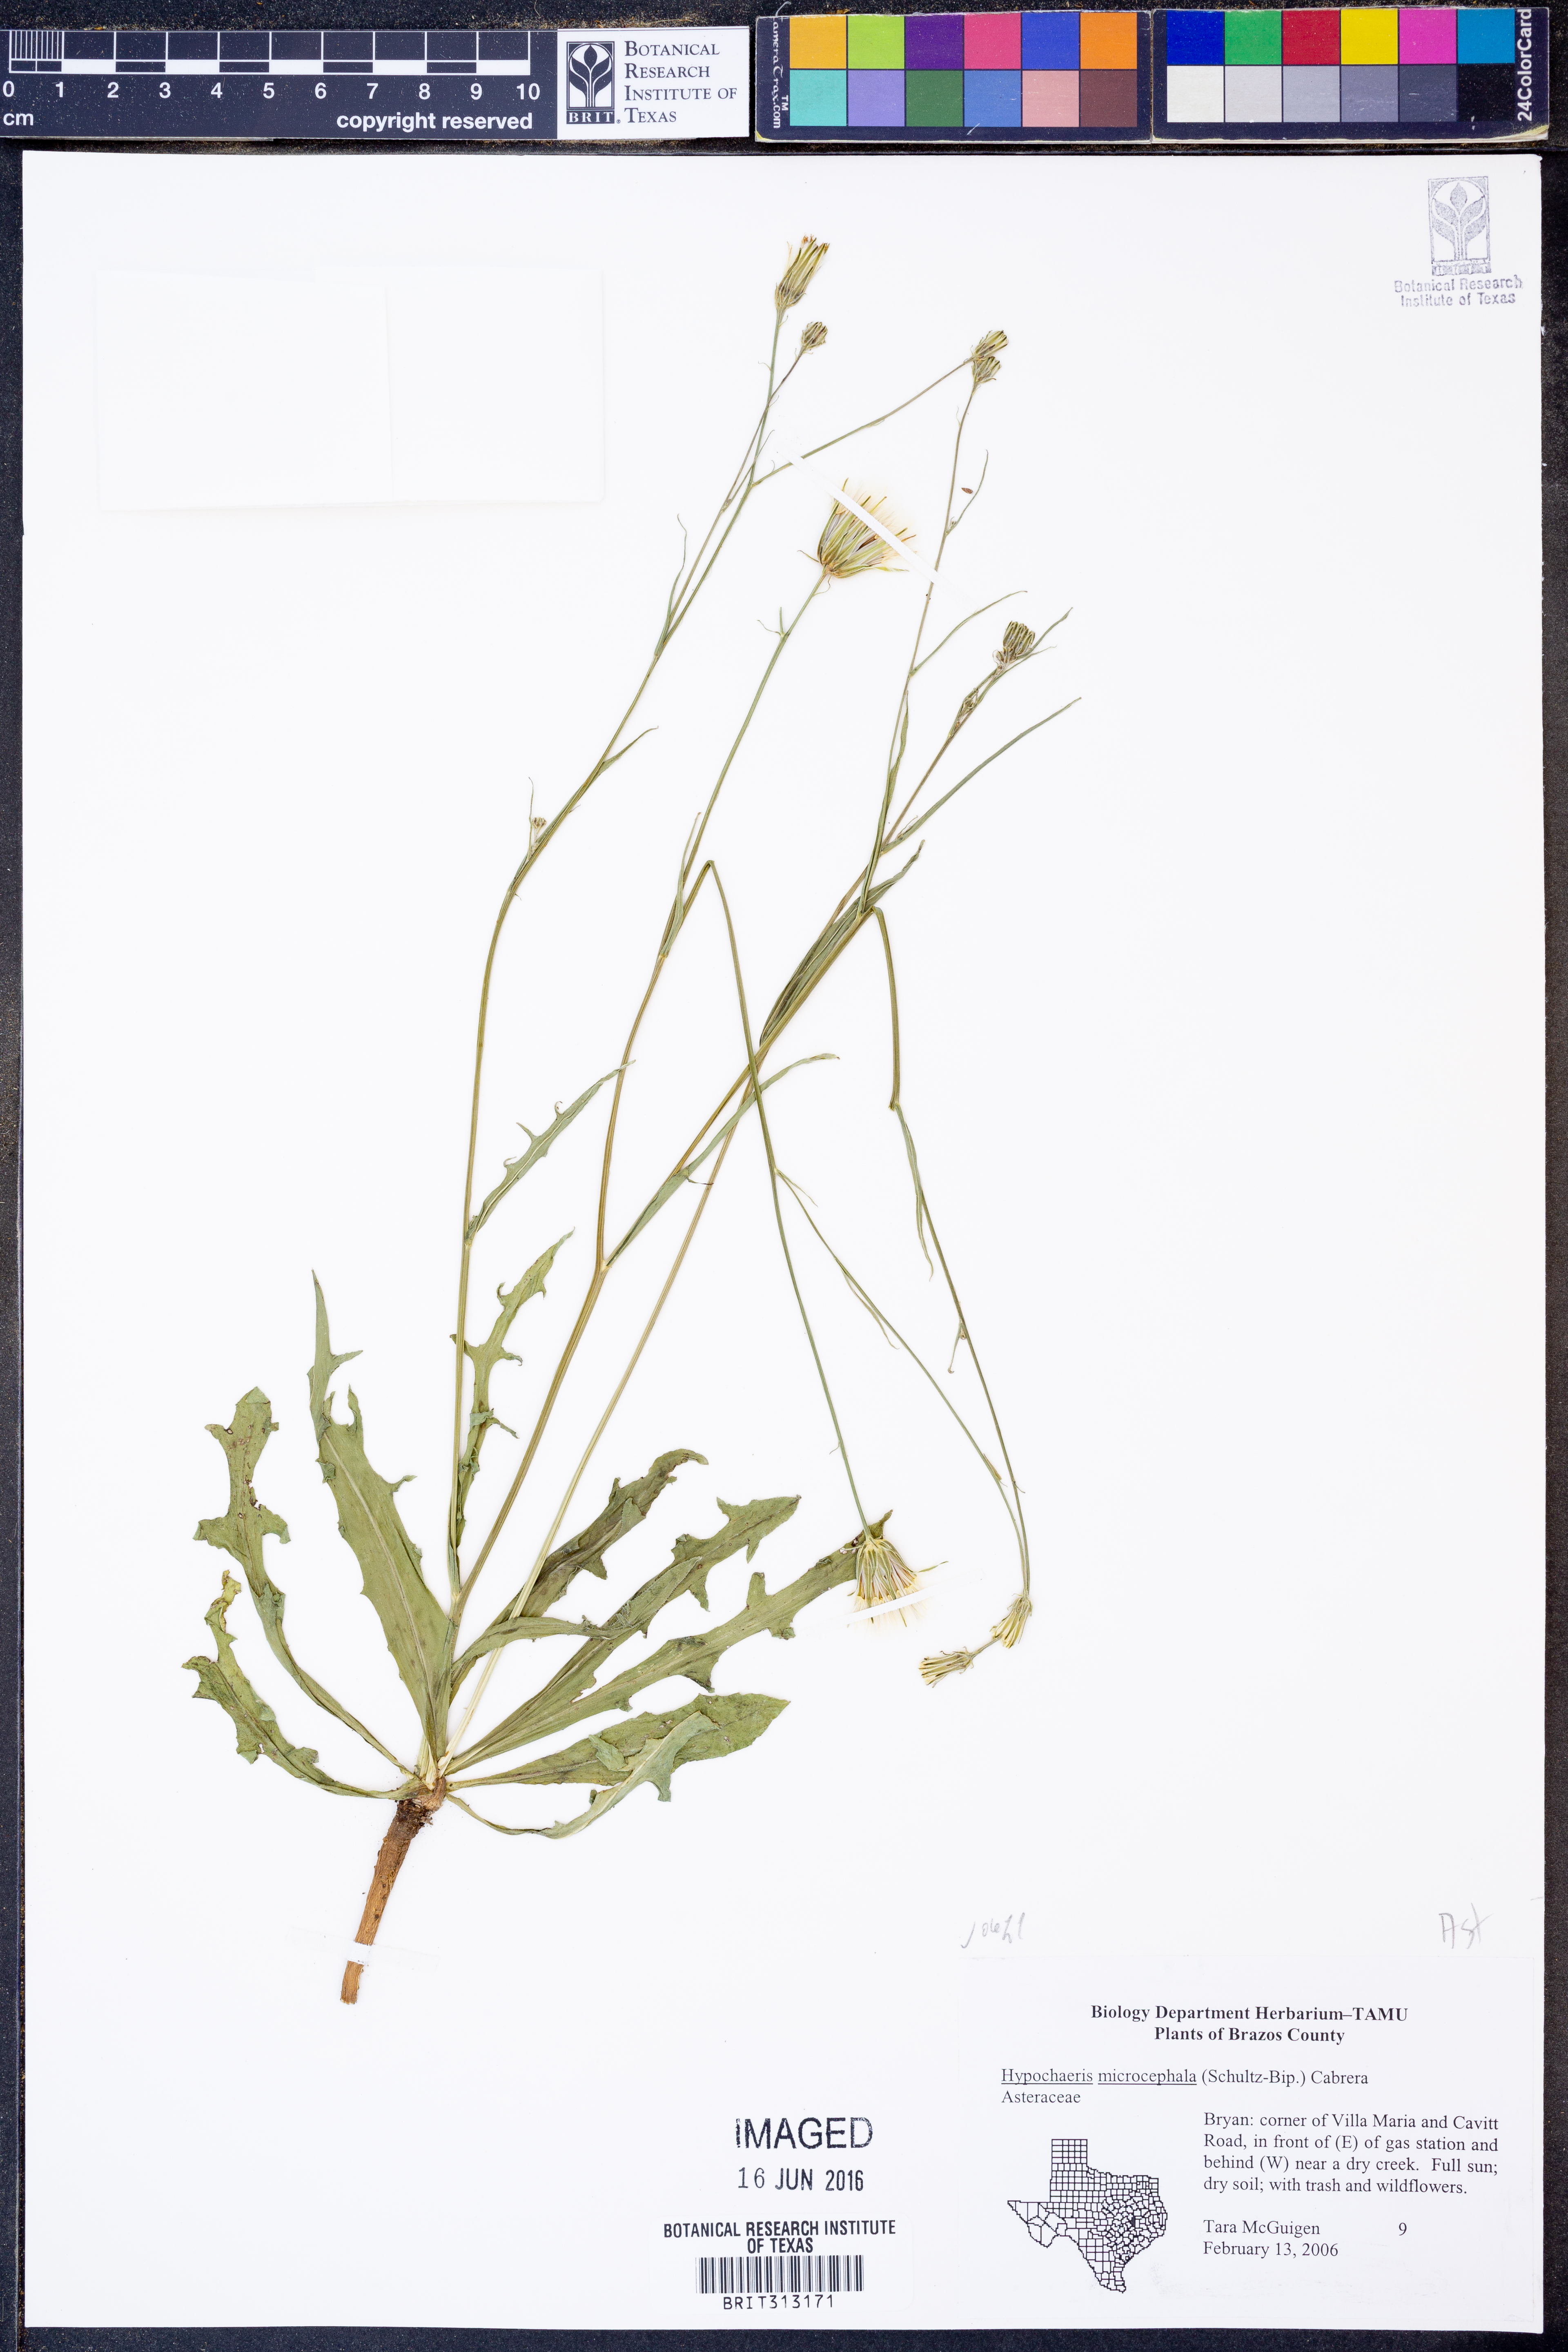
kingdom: Plantae
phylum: Tracheophyta
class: Magnoliopsida
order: Asterales
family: Asteraceae
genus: Hypochaeris
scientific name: Hypochaeris microcephala
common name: White flatweed
